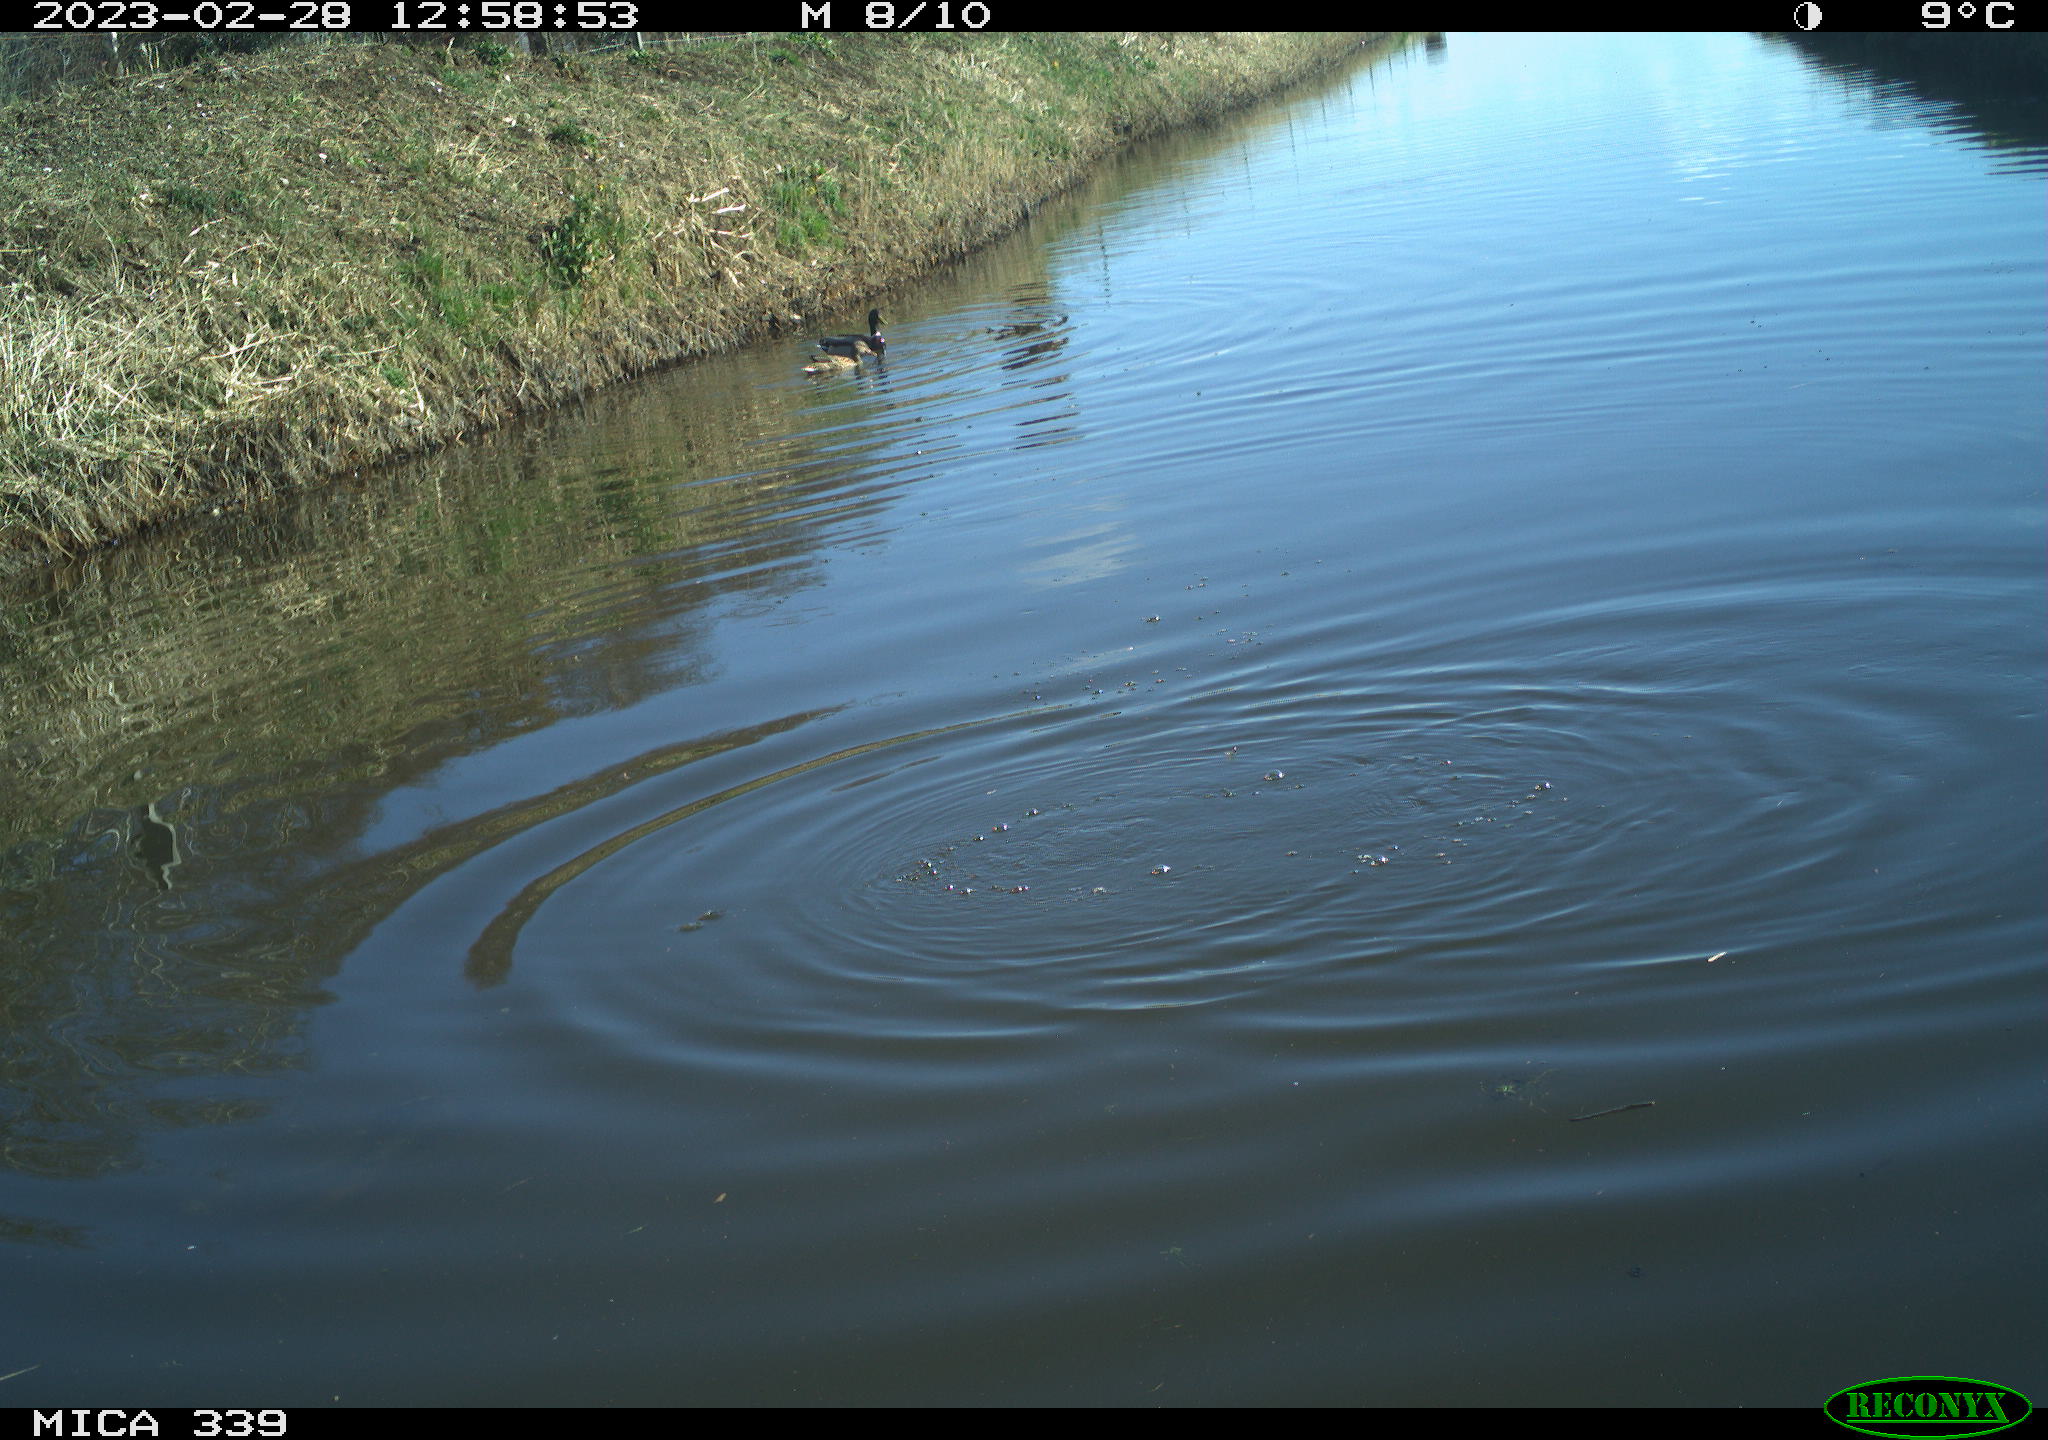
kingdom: Animalia
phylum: Chordata
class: Aves
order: Anseriformes
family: Anatidae
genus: Anas
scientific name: Anas
